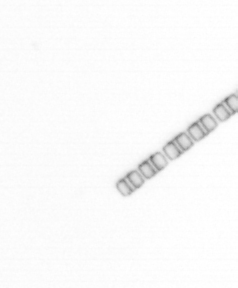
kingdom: Chromista
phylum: Ochrophyta
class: Bacillariophyceae
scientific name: Bacillariophyceae
